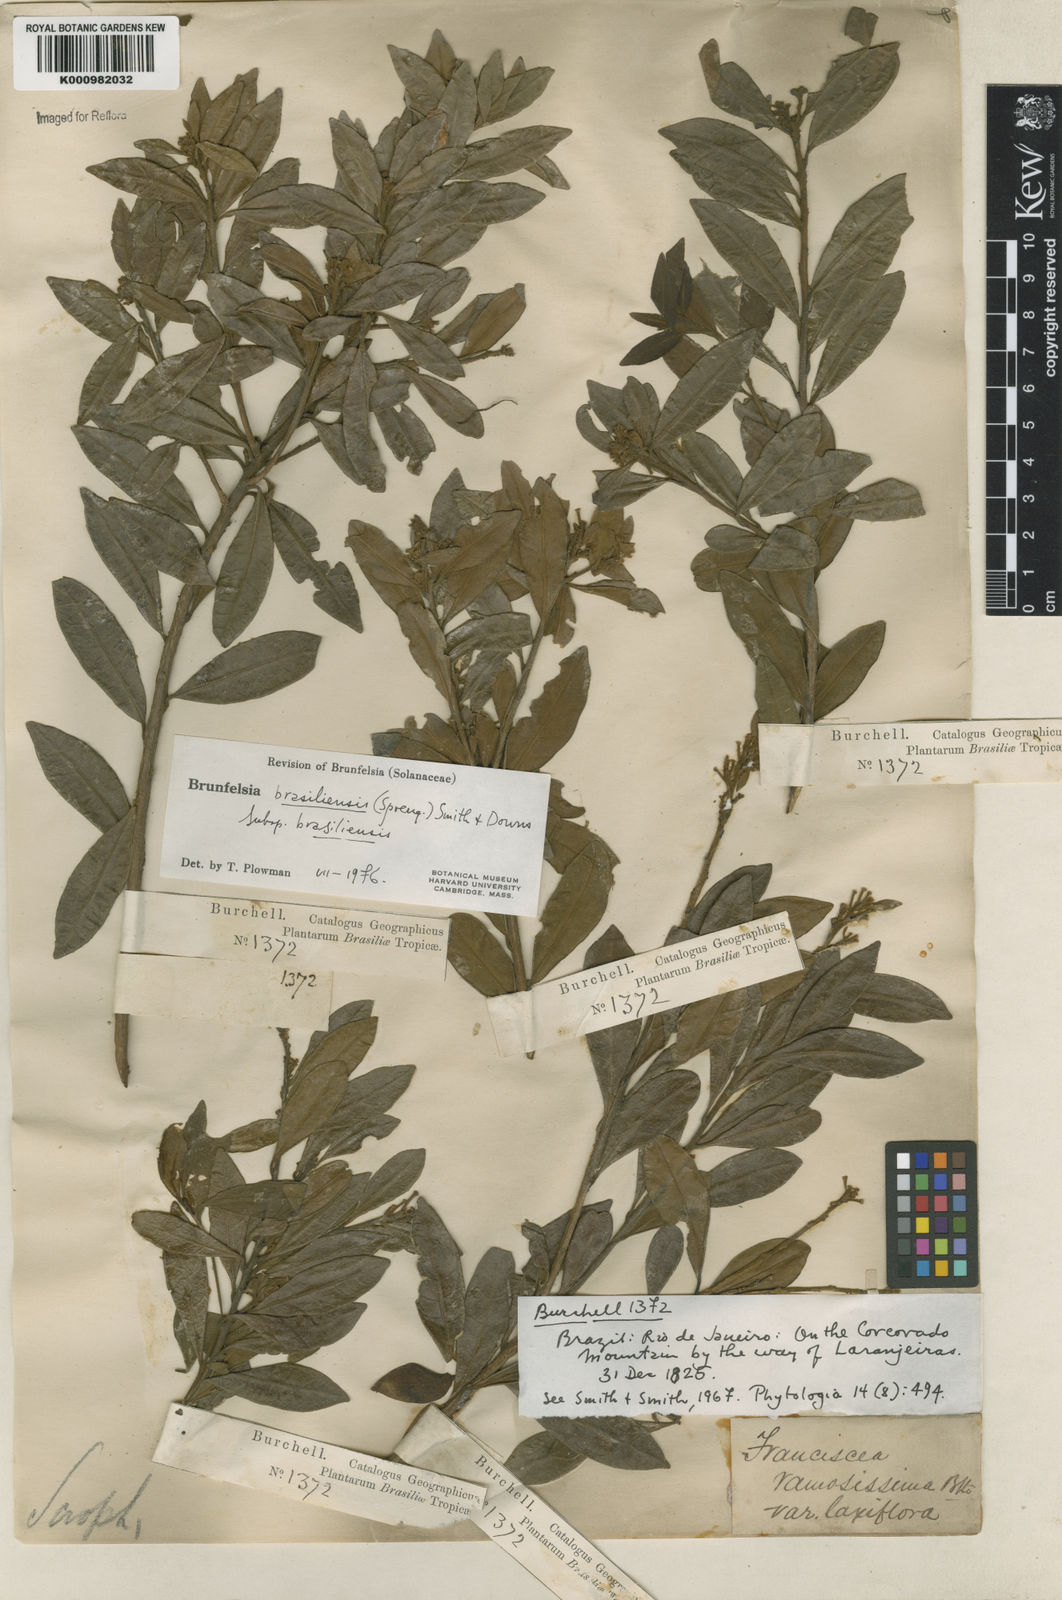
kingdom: Plantae
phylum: Tracheophyta
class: Magnoliopsida
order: Solanales
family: Solanaceae
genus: Brunfelsia
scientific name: Brunfelsia brasiliensis
